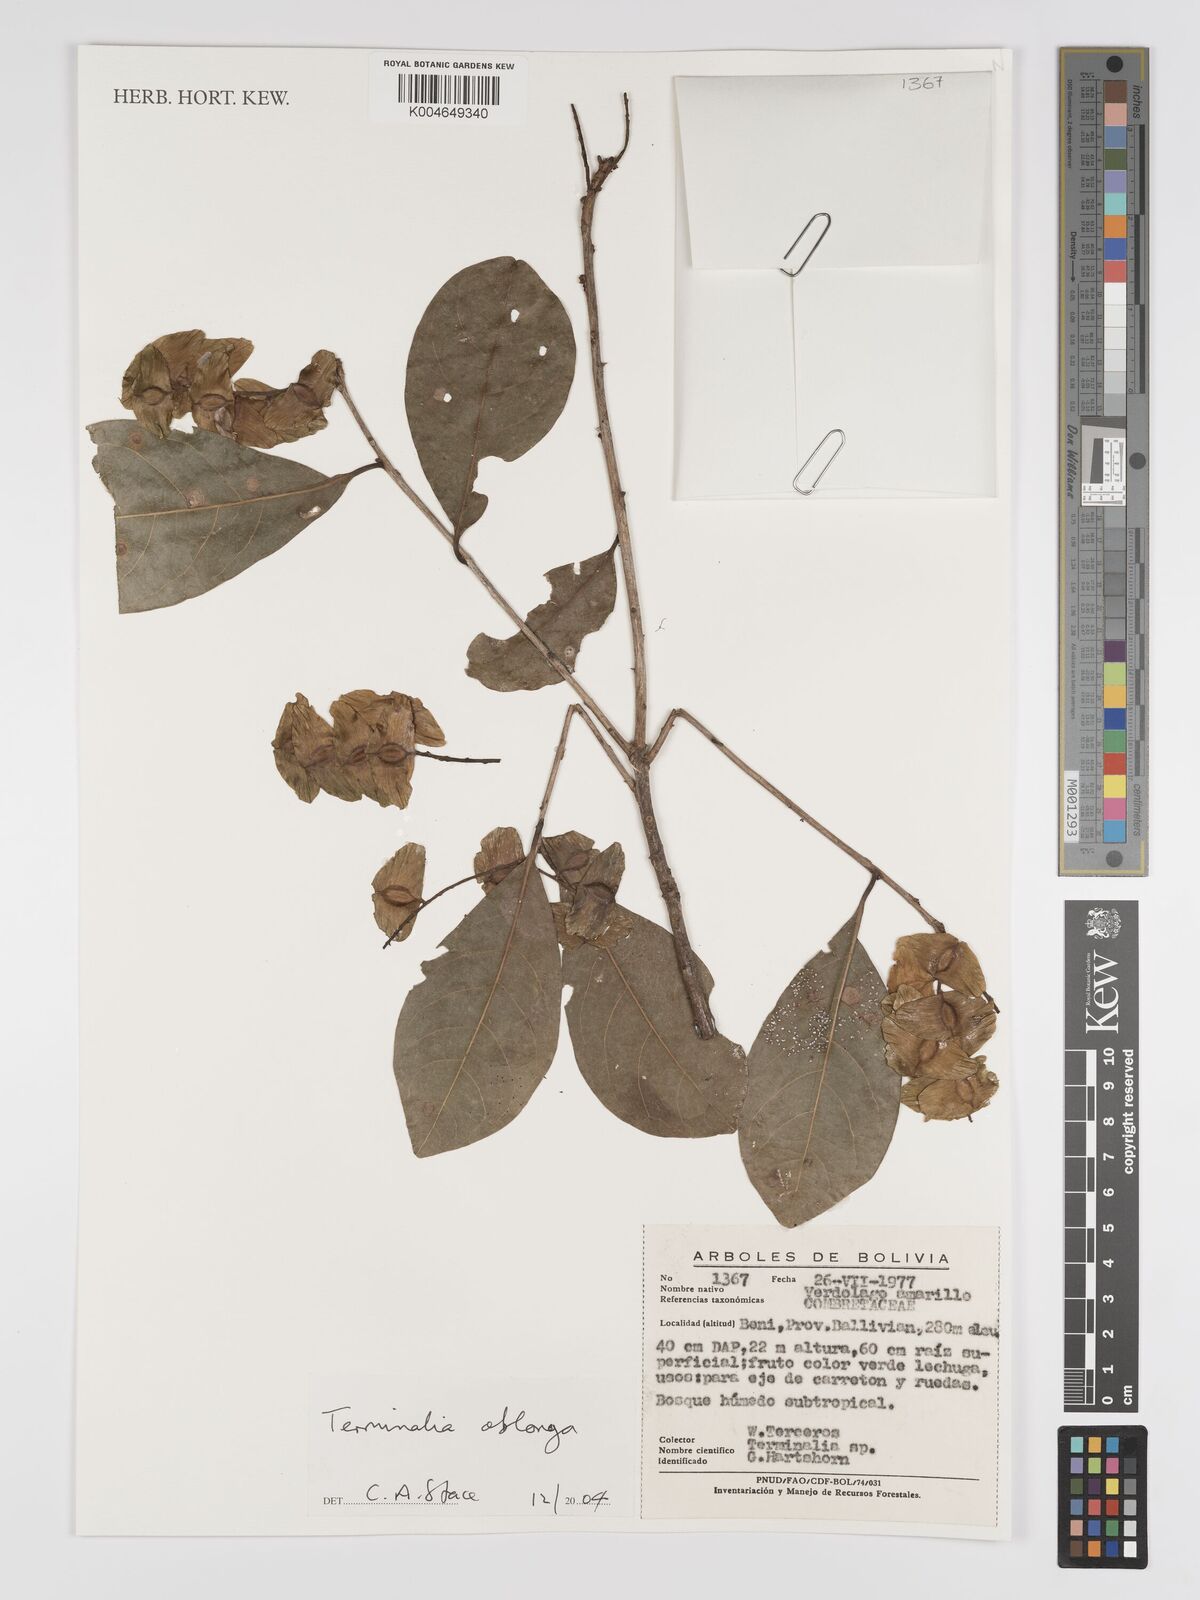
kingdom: Plantae
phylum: Tracheophyta
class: Magnoliopsida
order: Myrtales
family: Combretaceae
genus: Terminalia
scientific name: Terminalia oblonga
